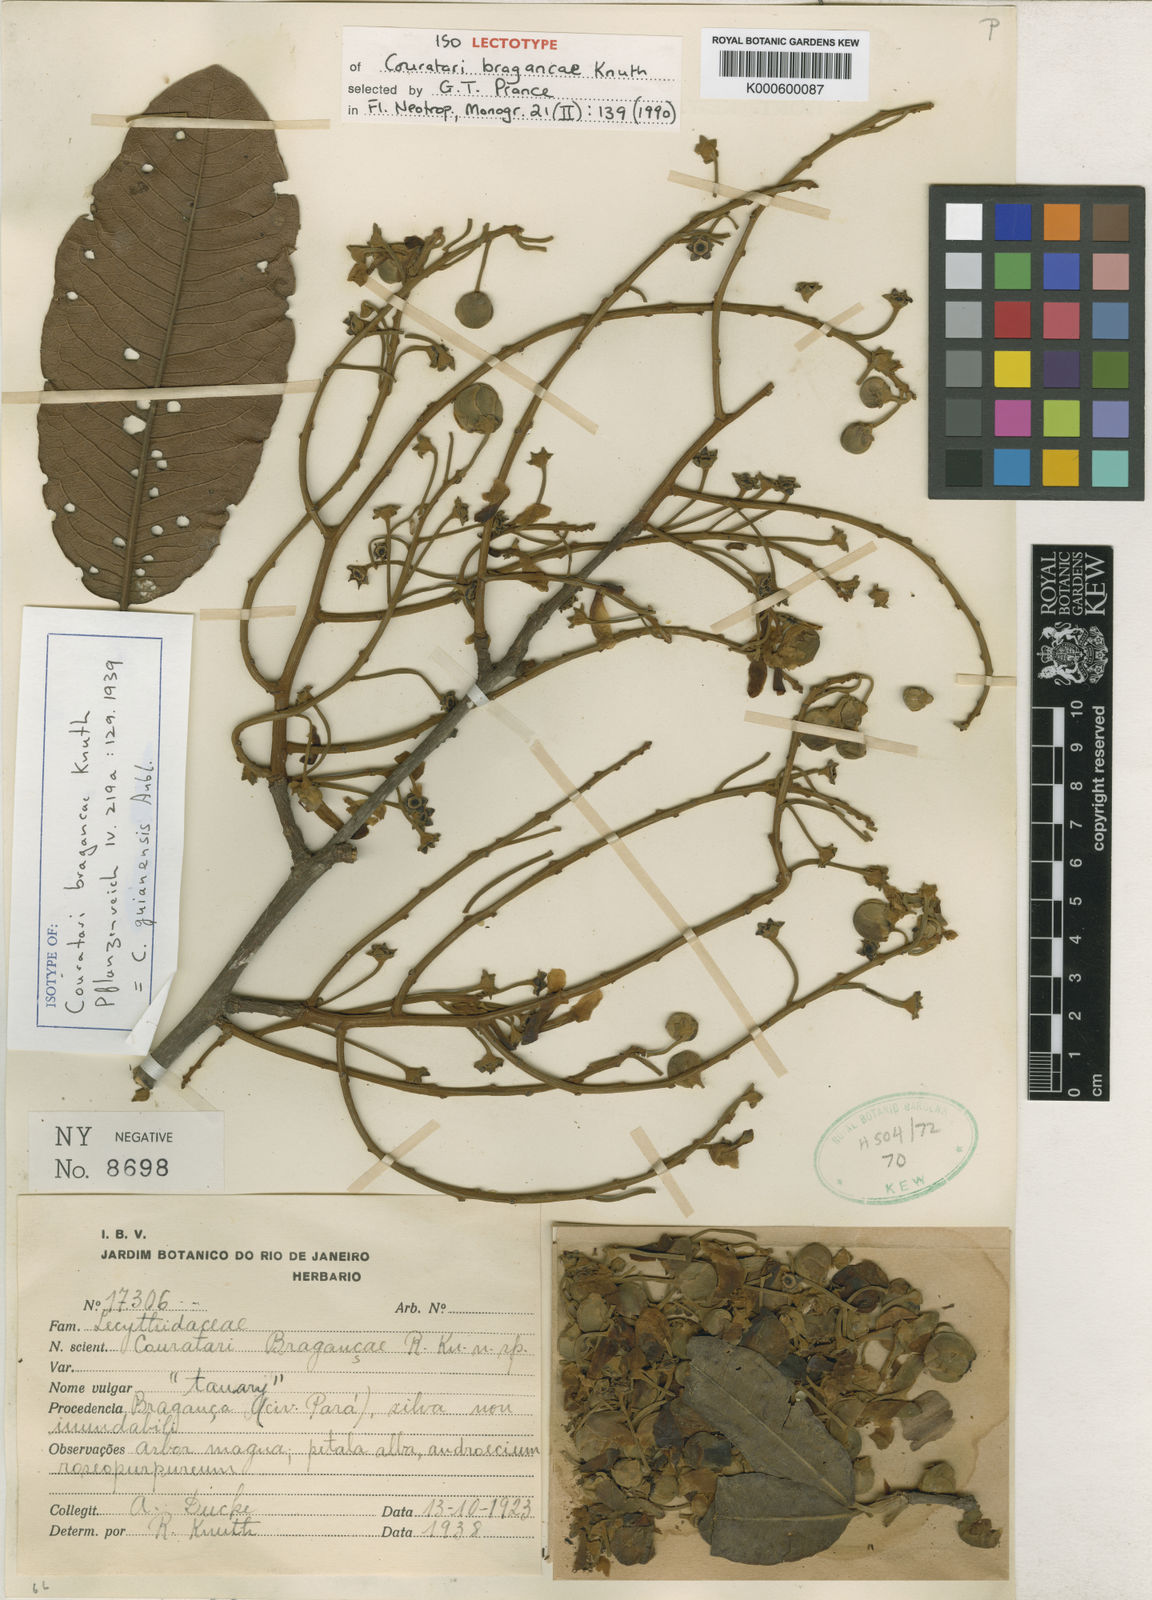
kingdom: Plantae
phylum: Tracheophyta
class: Magnoliopsida
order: Ericales
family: Lecythidaceae
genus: Couratari
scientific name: Couratari guianensis
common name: Fine-leaf wadara
